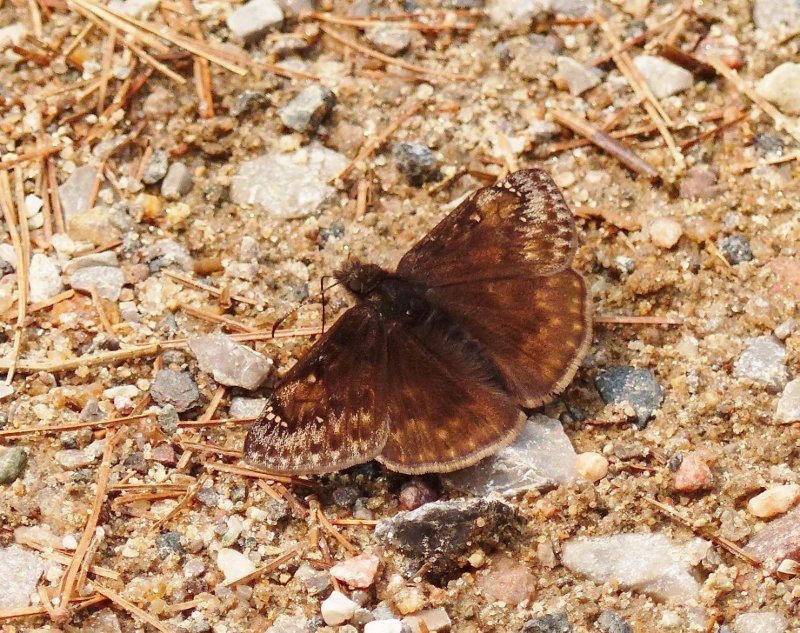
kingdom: Animalia
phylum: Arthropoda
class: Insecta
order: Lepidoptera
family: Hesperiidae
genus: Gesta
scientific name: Gesta
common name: Juvenal's Duskywing
